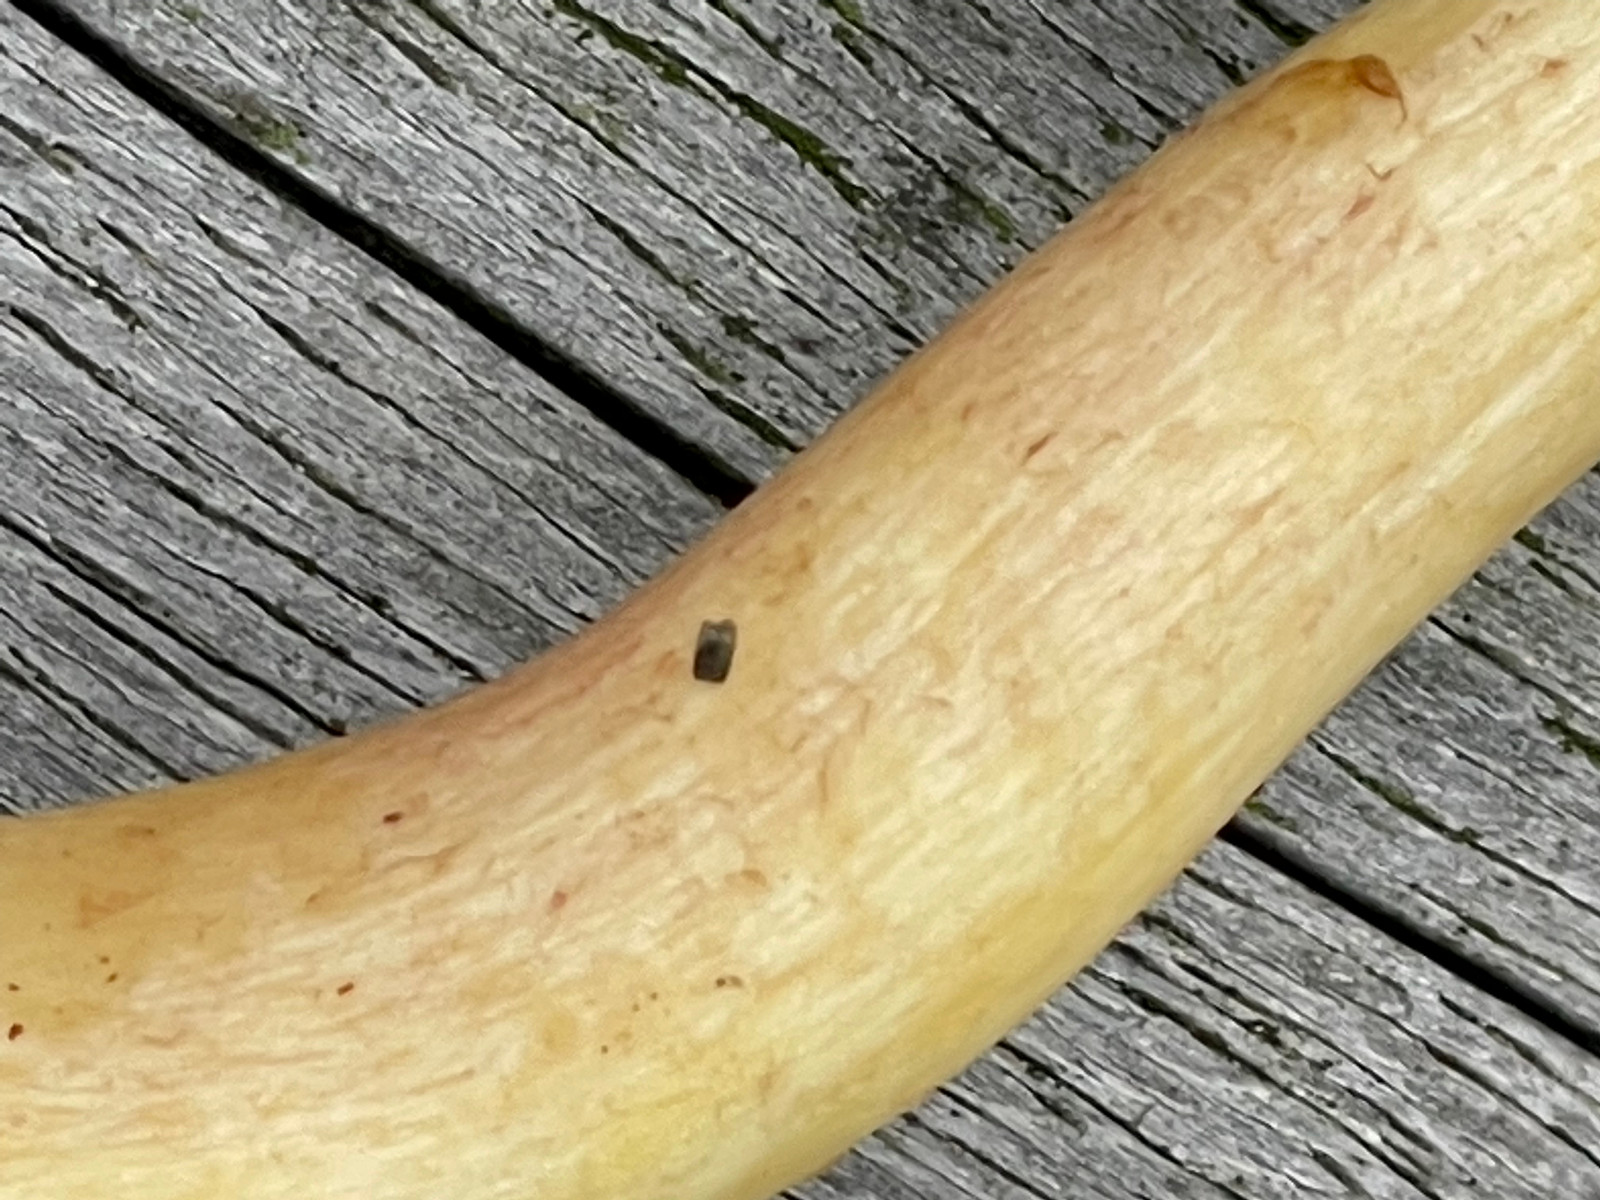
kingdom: Fungi
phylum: Basidiomycota
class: Agaricomycetes
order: Agaricales
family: Tricholomataceae
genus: Tricholomopsis
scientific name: Tricholomopsis rutilans
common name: purpur-væbnerhat
